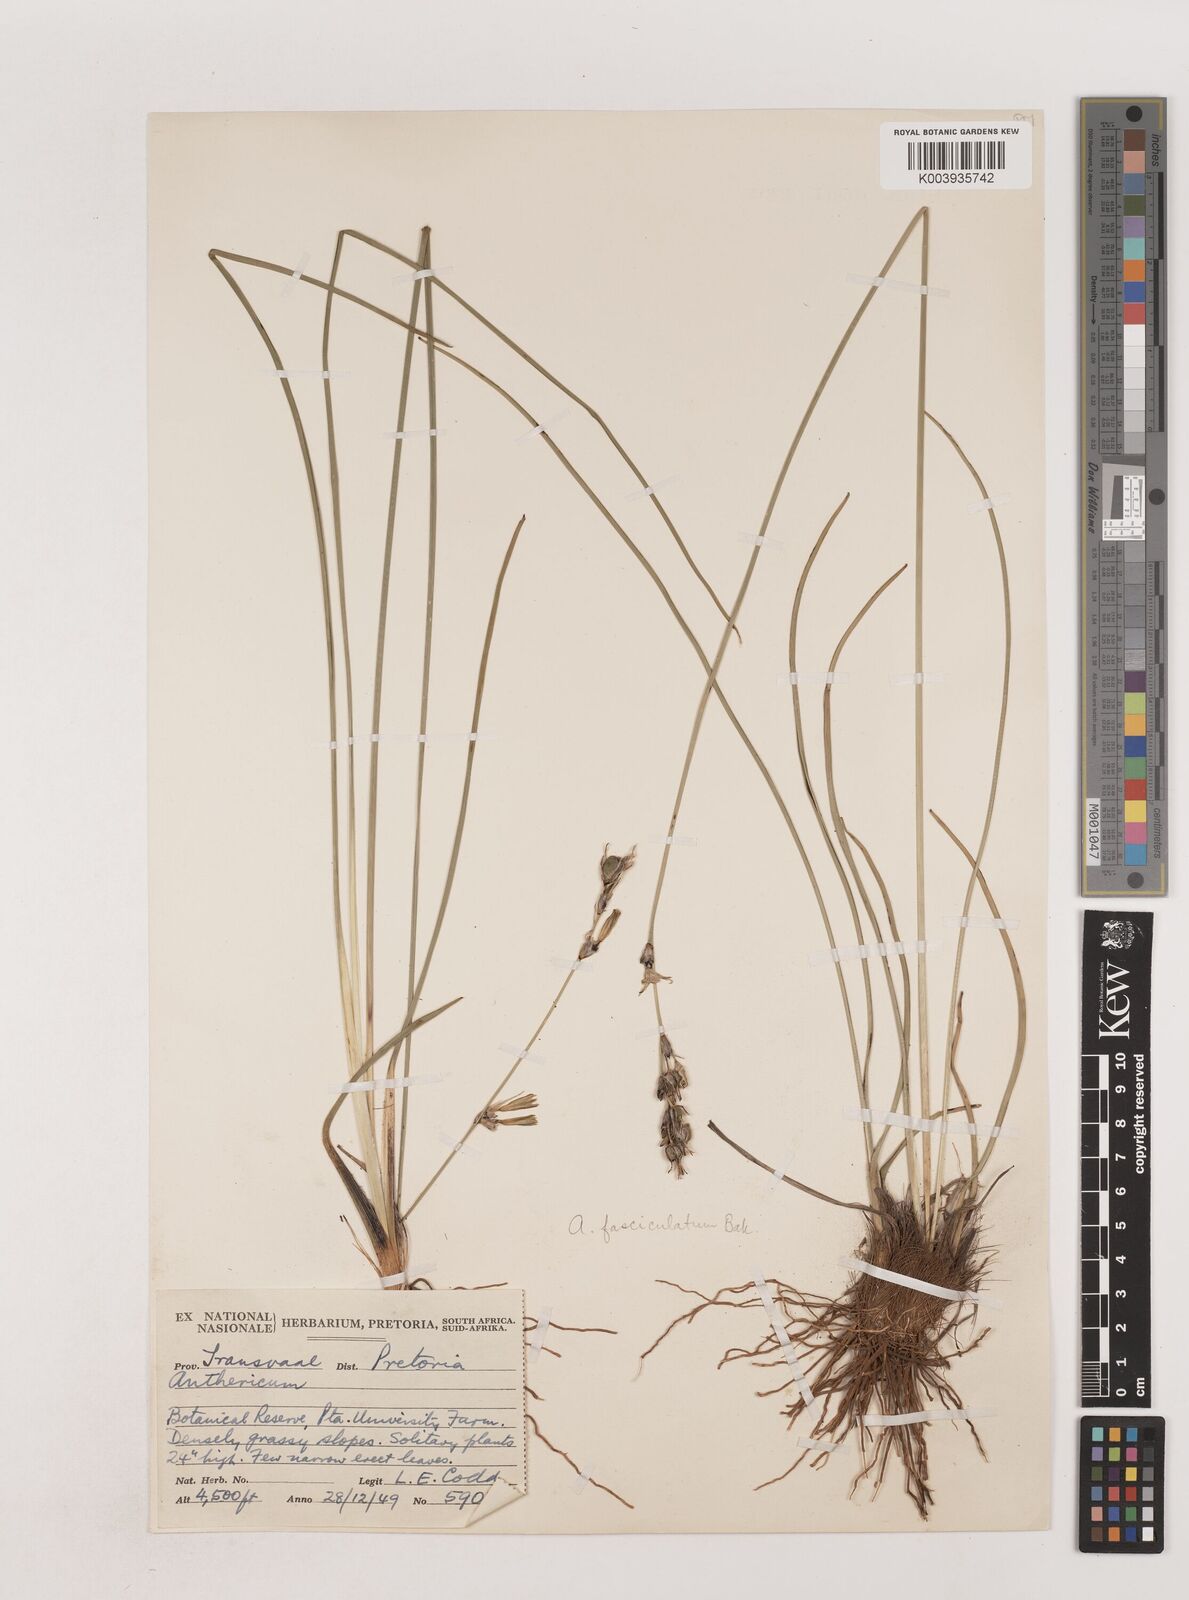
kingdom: Plantae
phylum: Tracheophyta
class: Liliopsida
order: Asparagales
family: Asparagaceae
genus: Chlorophytum
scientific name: Chlorophytum fasciculatum
